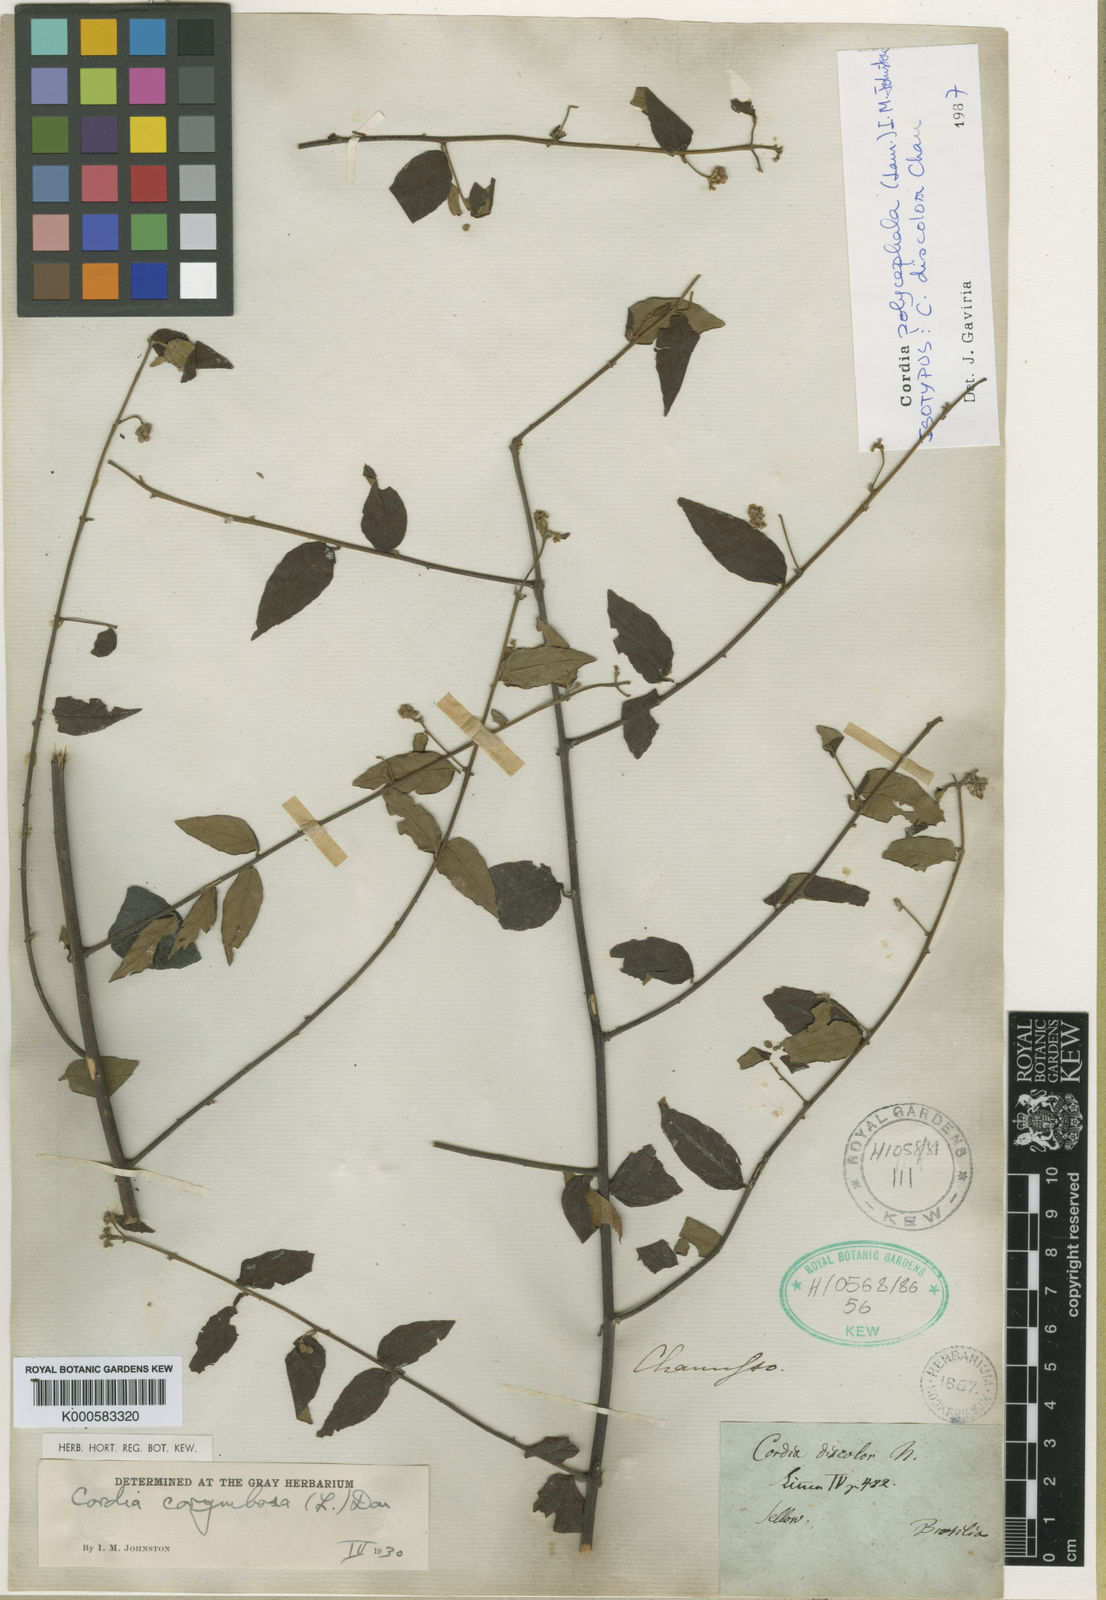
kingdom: Plantae
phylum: Tracheophyta
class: Magnoliopsida
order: Boraginales
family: Cordiaceae
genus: Varronia
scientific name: Varronia discolor
